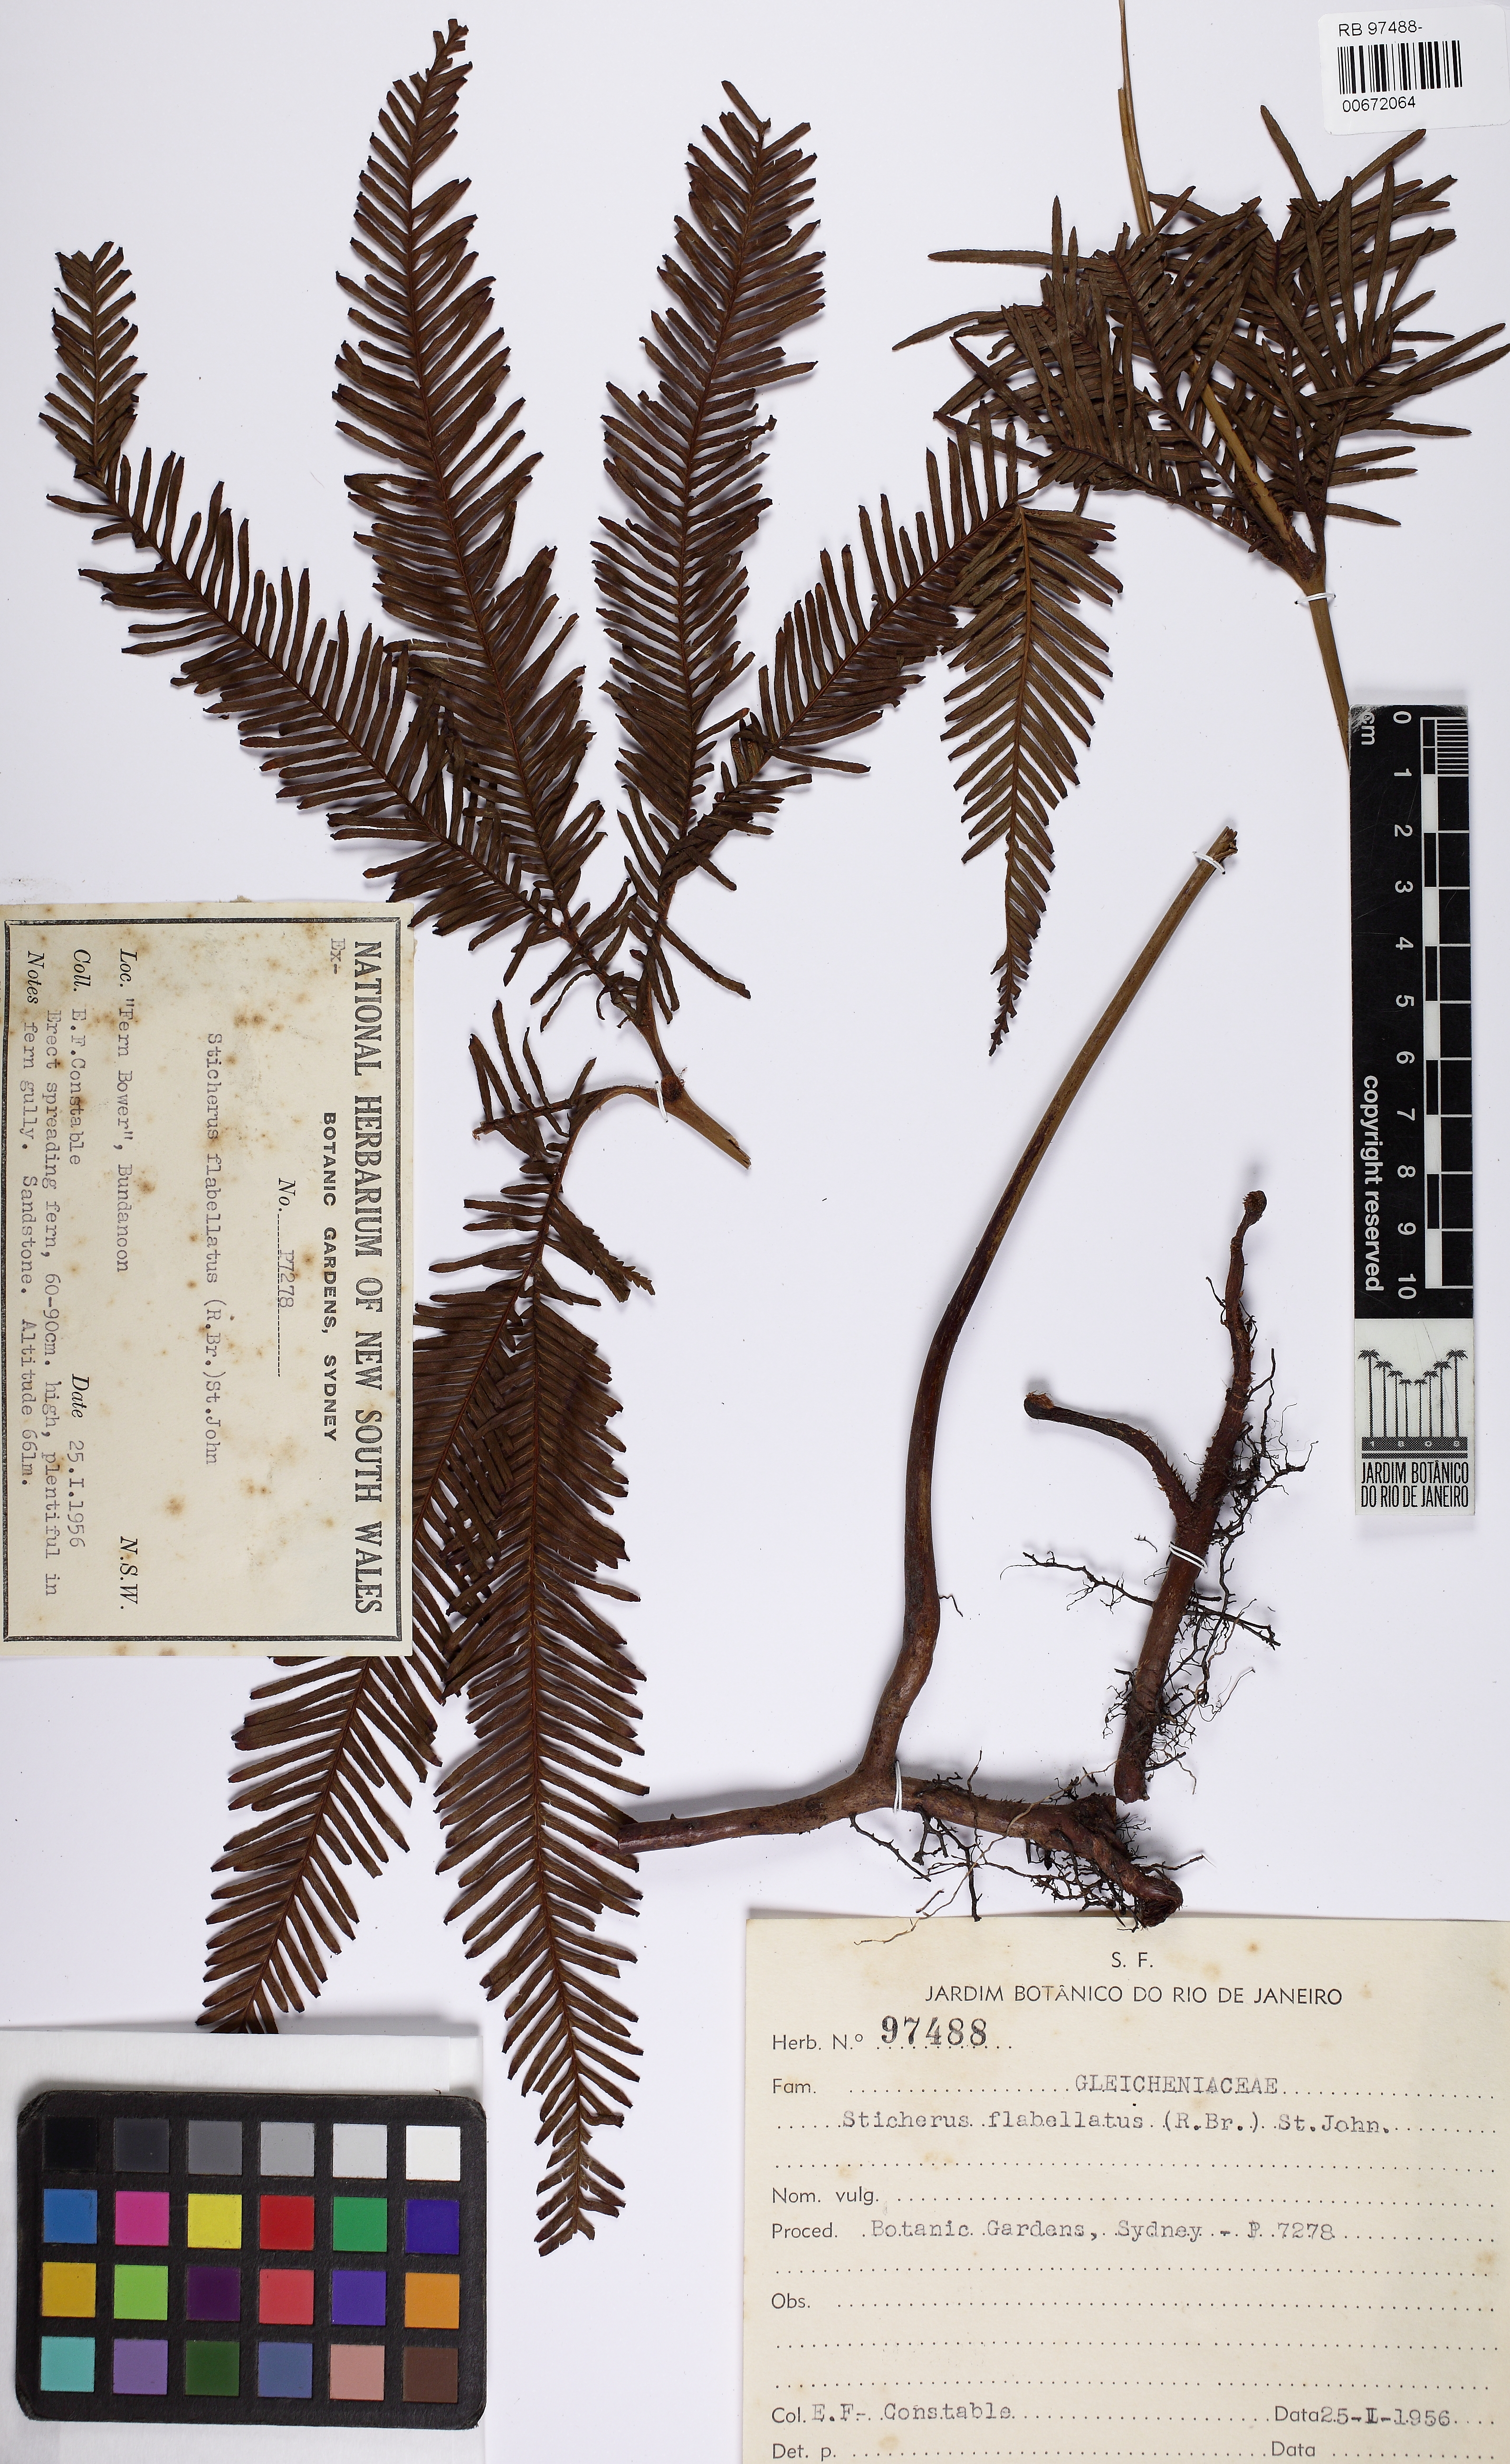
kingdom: Plantae
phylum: Tracheophyta
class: Polypodiopsida
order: Gleicheniales
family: Gleicheniaceae
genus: Sticherus
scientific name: Sticherus flabellatus
